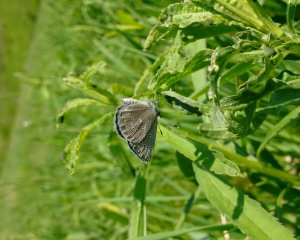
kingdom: Animalia
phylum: Arthropoda
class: Insecta
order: Lepidoptera
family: Lycaenidae
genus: Glaucopsyche
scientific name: Glaucopsyche lygdamus
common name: Silvery Blue
